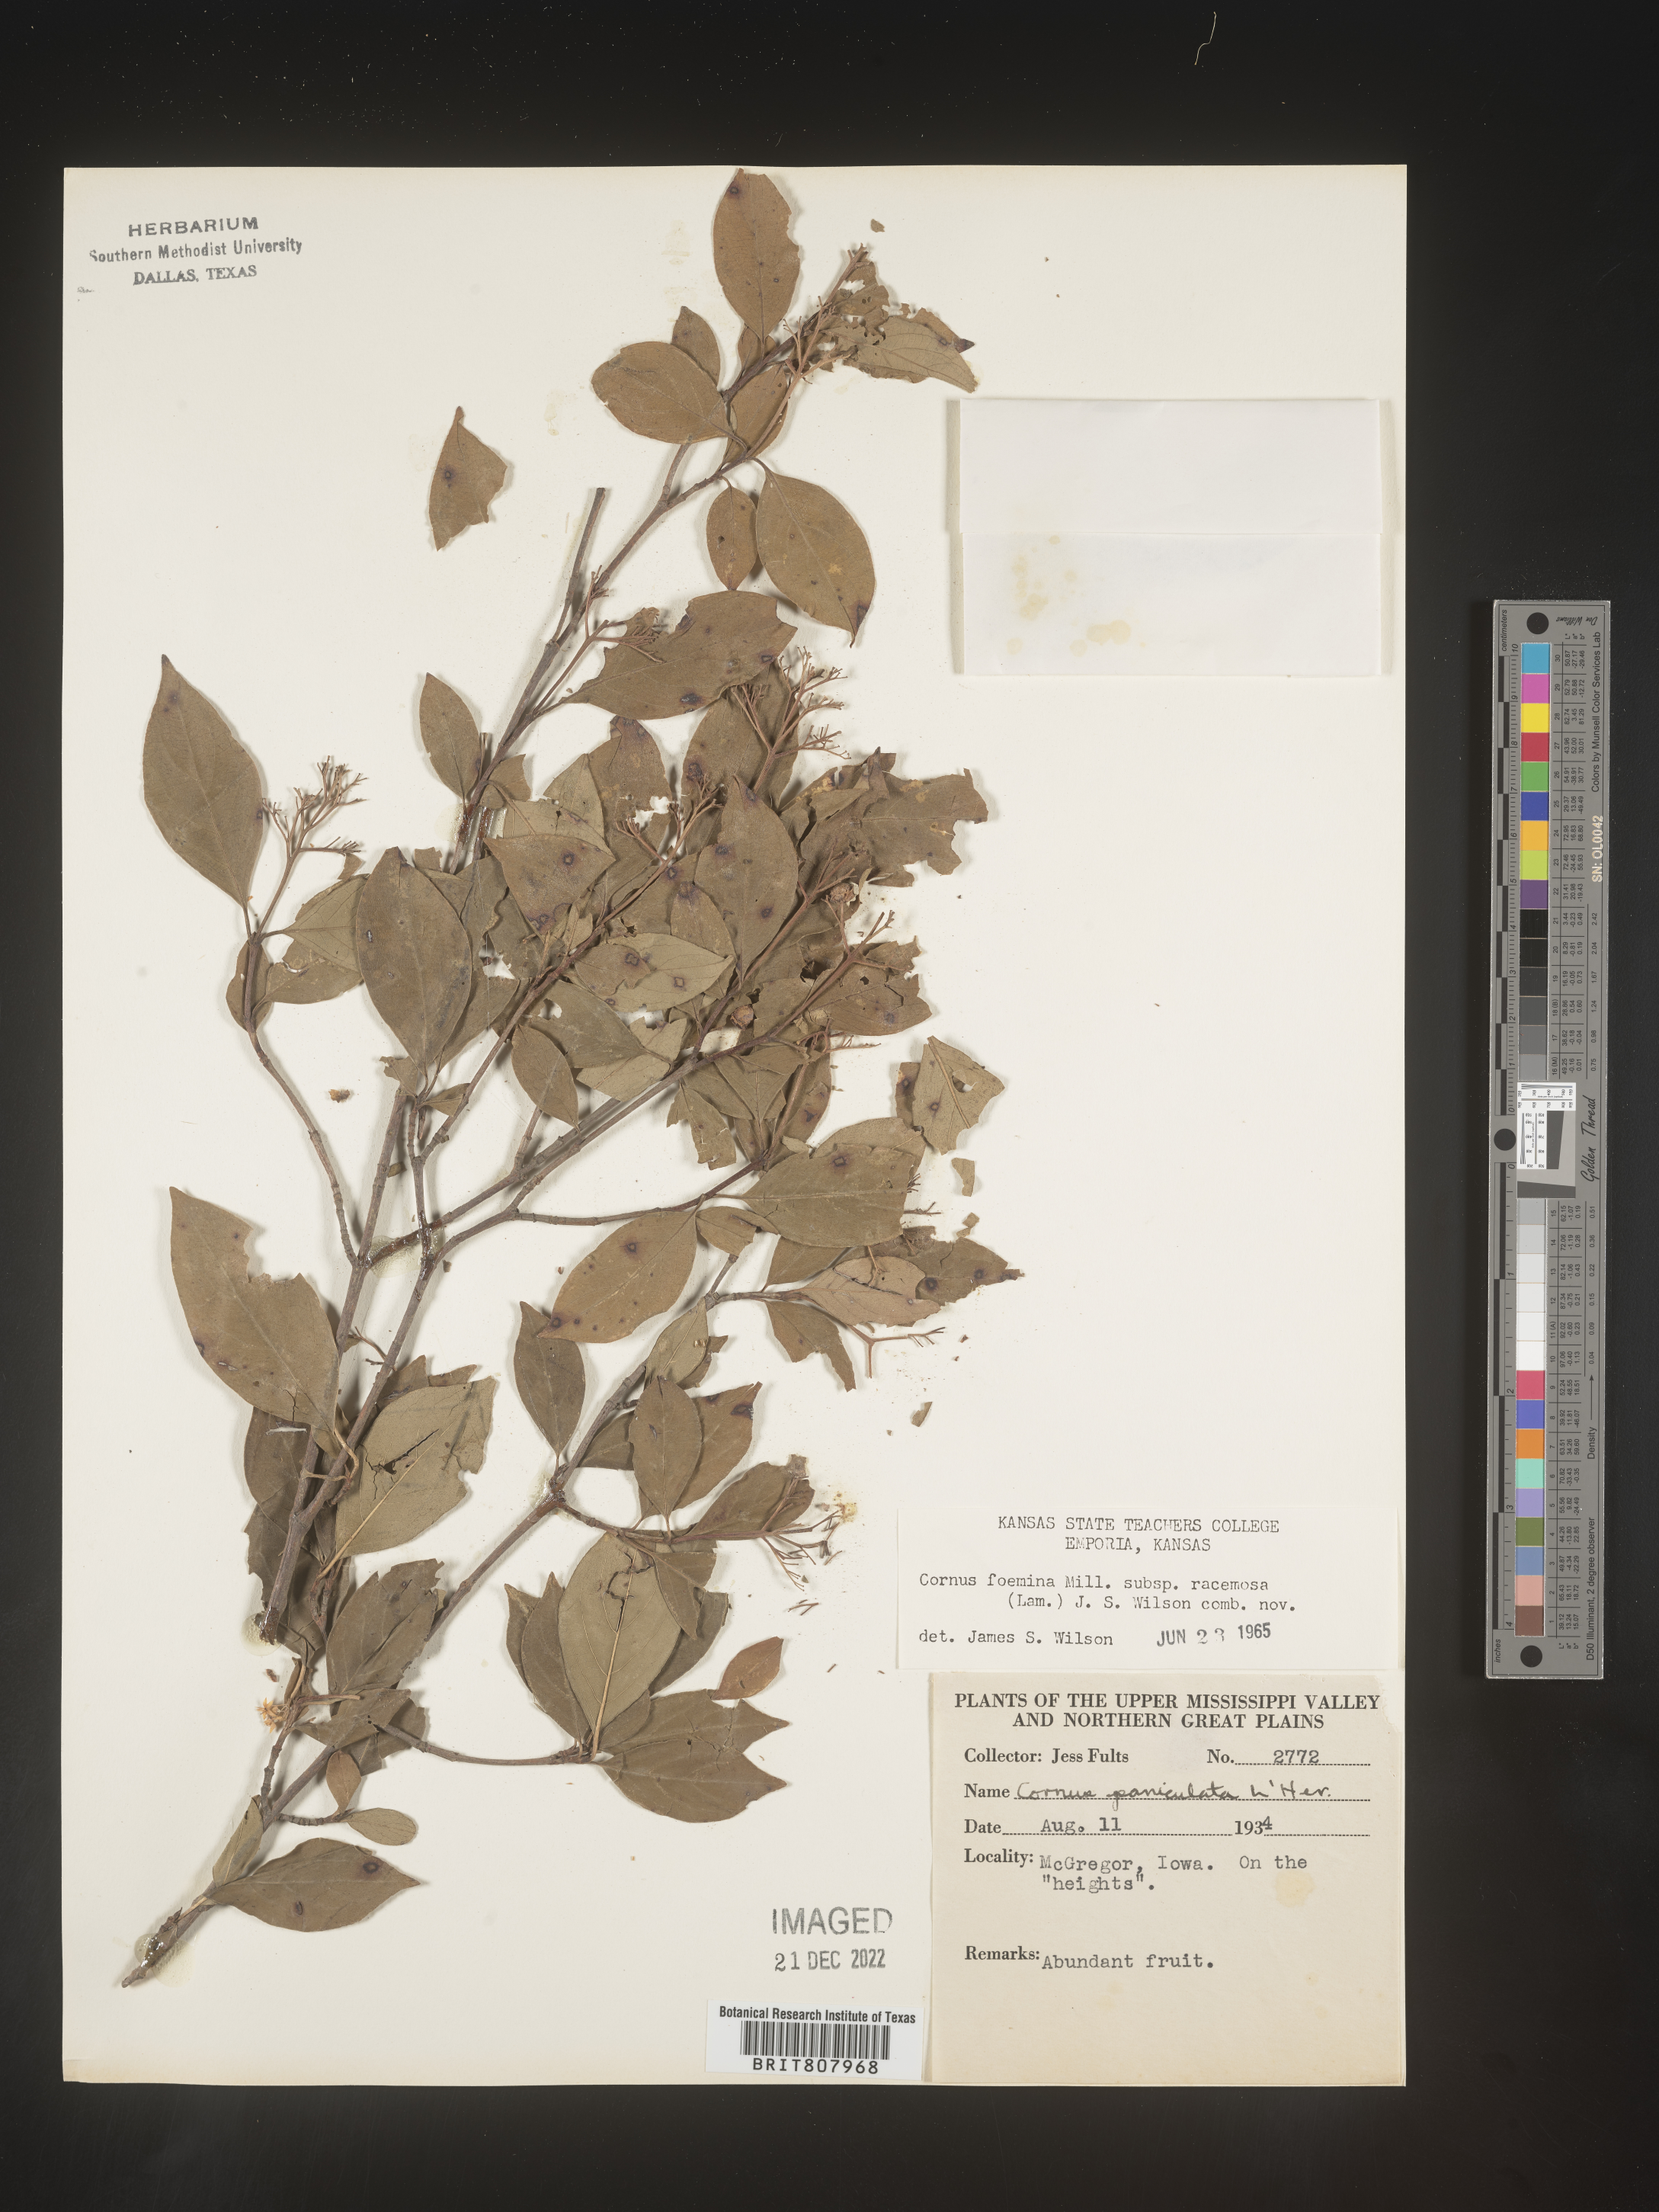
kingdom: Plantae
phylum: Tracheophyta
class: Magnoliopsida
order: Cornales
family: Cornaceae
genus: Cornus
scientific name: Cornus racemosa
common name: Panicled dogwood
